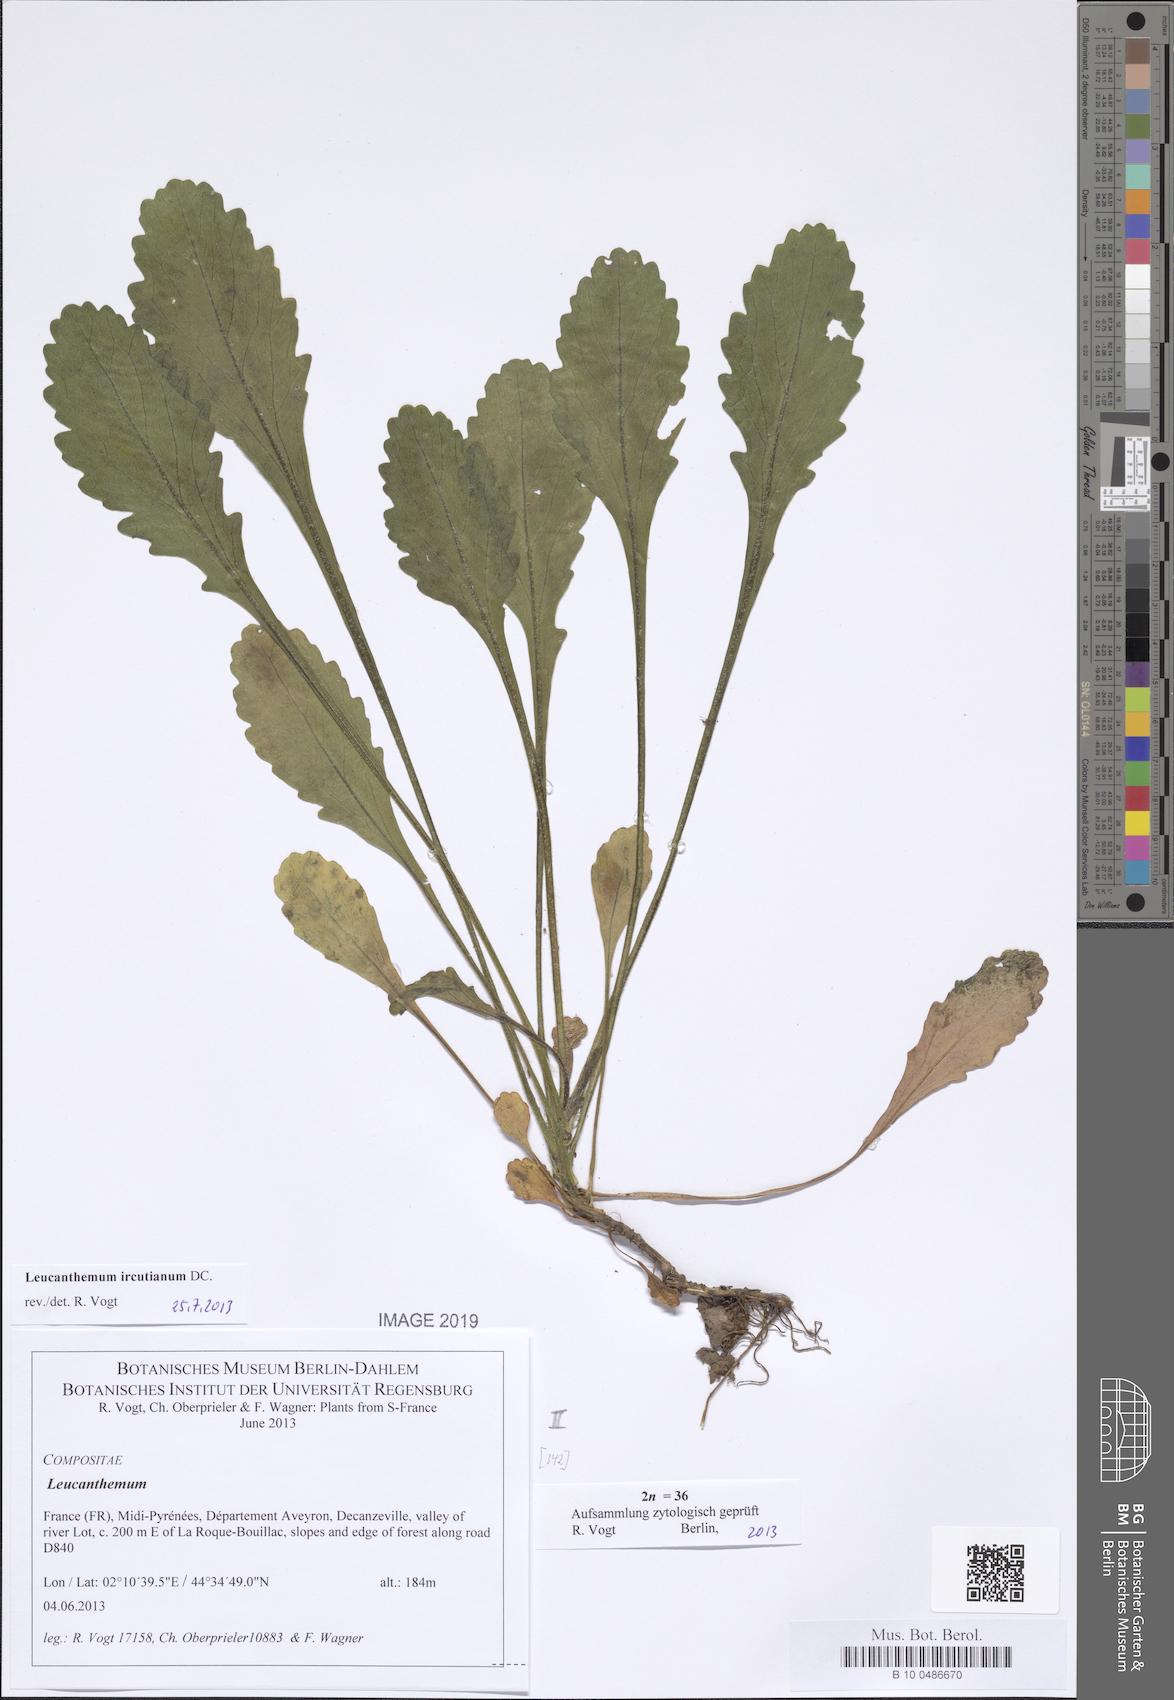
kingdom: Plantae
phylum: Tracheophyta
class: Magnoliopsida
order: Asterales
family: Asteraceae
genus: Leucanthemum
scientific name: Leucanthemum ircutianum
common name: Daisy
